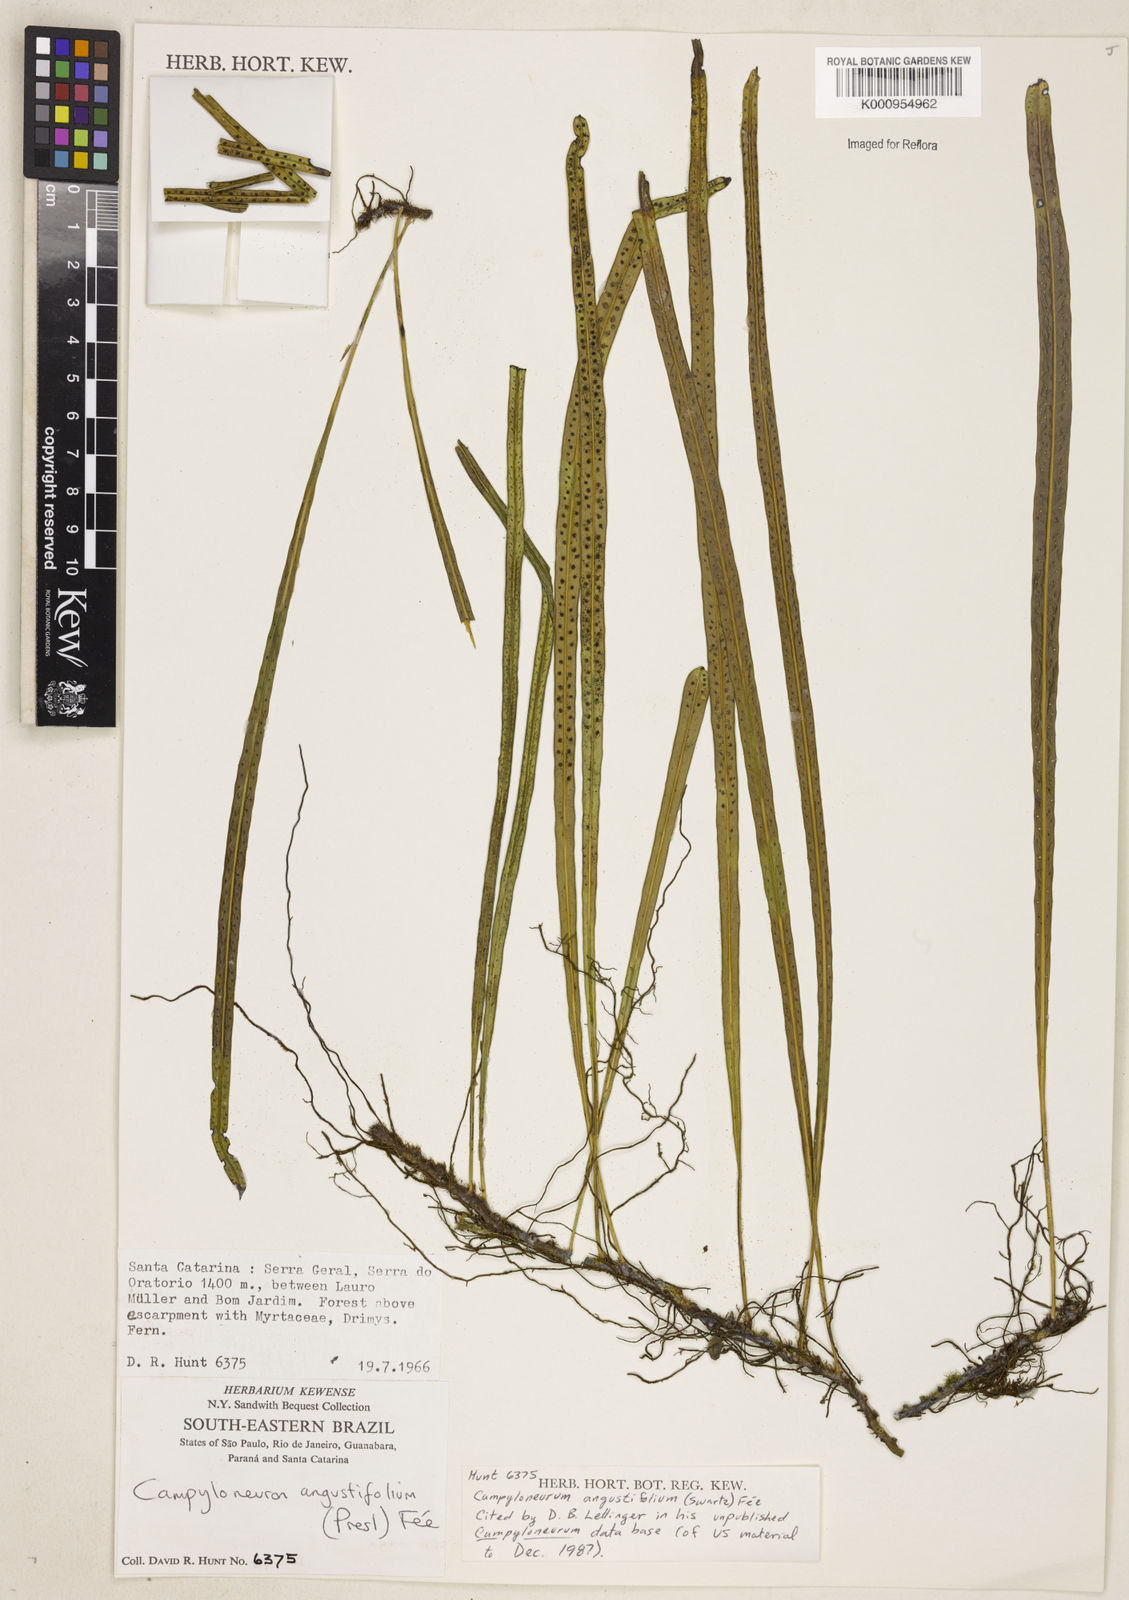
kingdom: Plantae
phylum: Tracheophyta
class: Polypodiopsida
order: Polypodiales
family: Polypodiaceae
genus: Campyloneurum
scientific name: Campyloneurum
